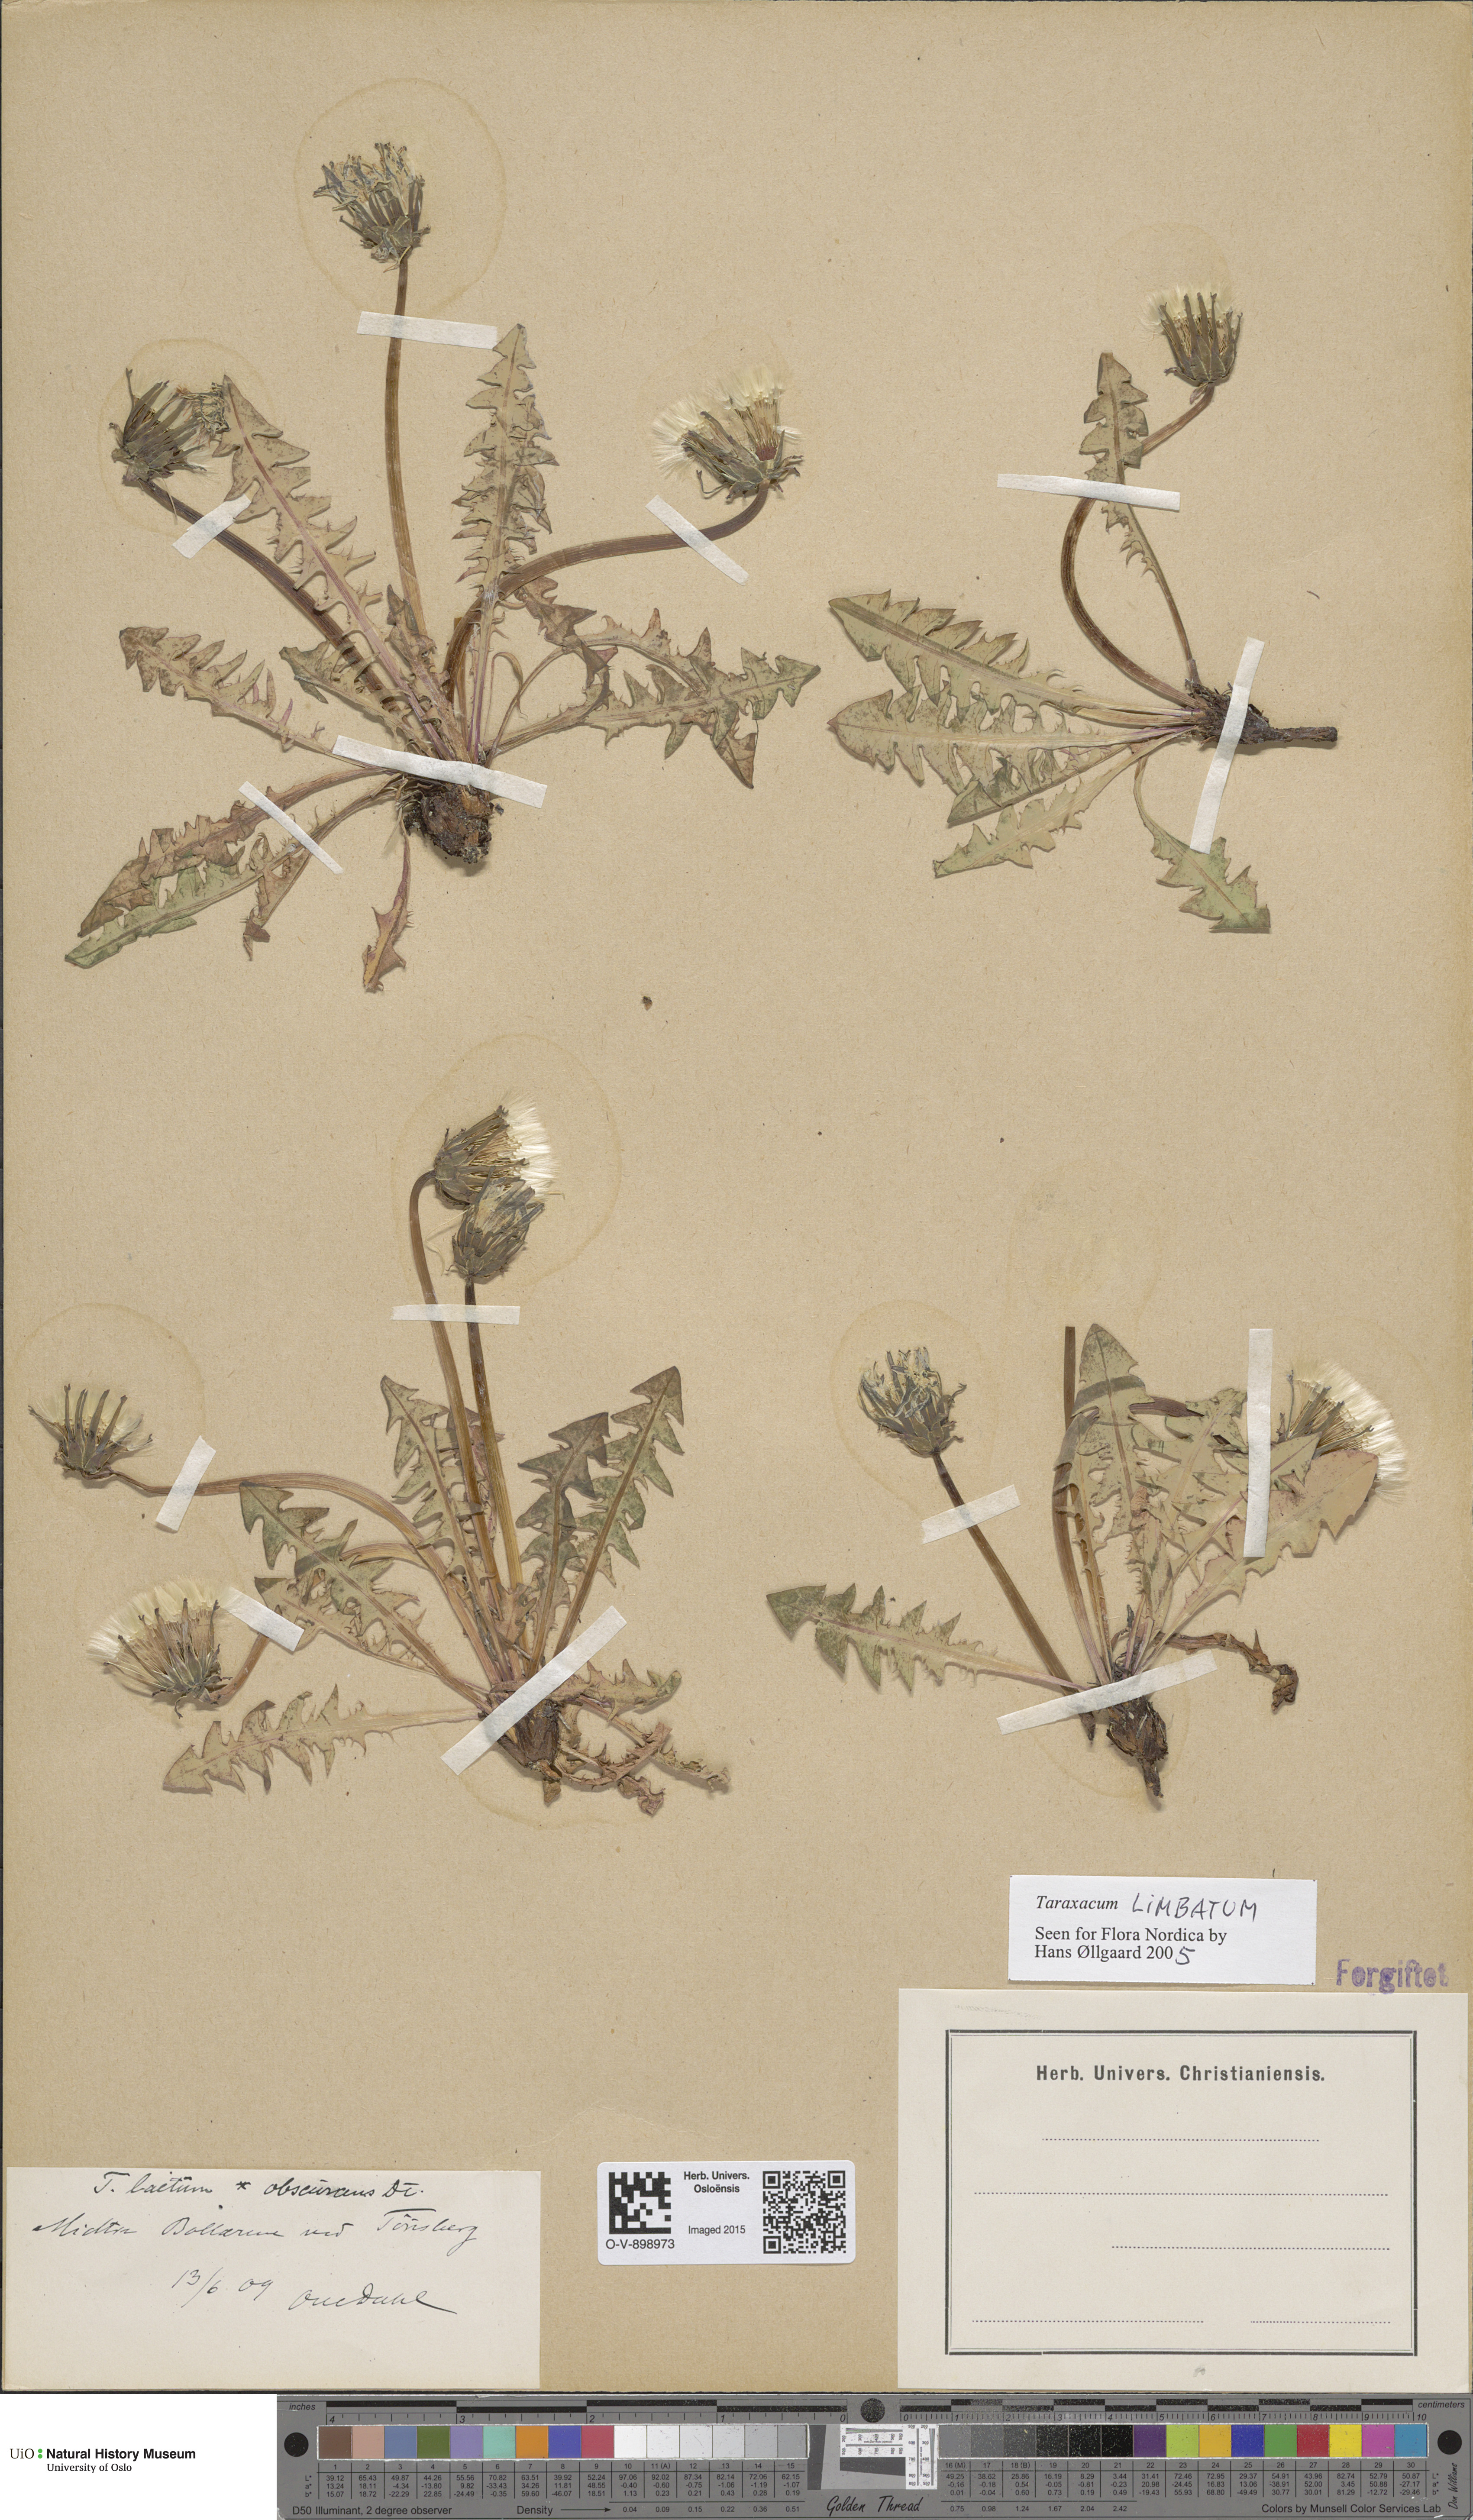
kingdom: Plantae
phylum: Tracheophyta
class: Magnoliopsida
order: Asterales
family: Asteraceae
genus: Taraxacum
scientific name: Taraxacum laetum
